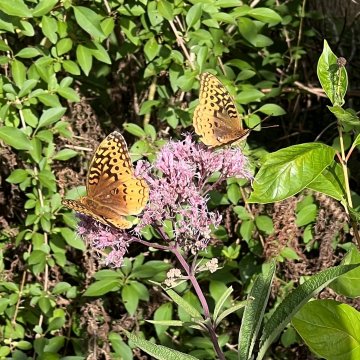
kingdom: Animalia
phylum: Arthropoda
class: Insecta
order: Lepidoptera
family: Nymphalidae
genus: Speyeria
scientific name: Speyeria cybele
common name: Great Spangled Fritillary
